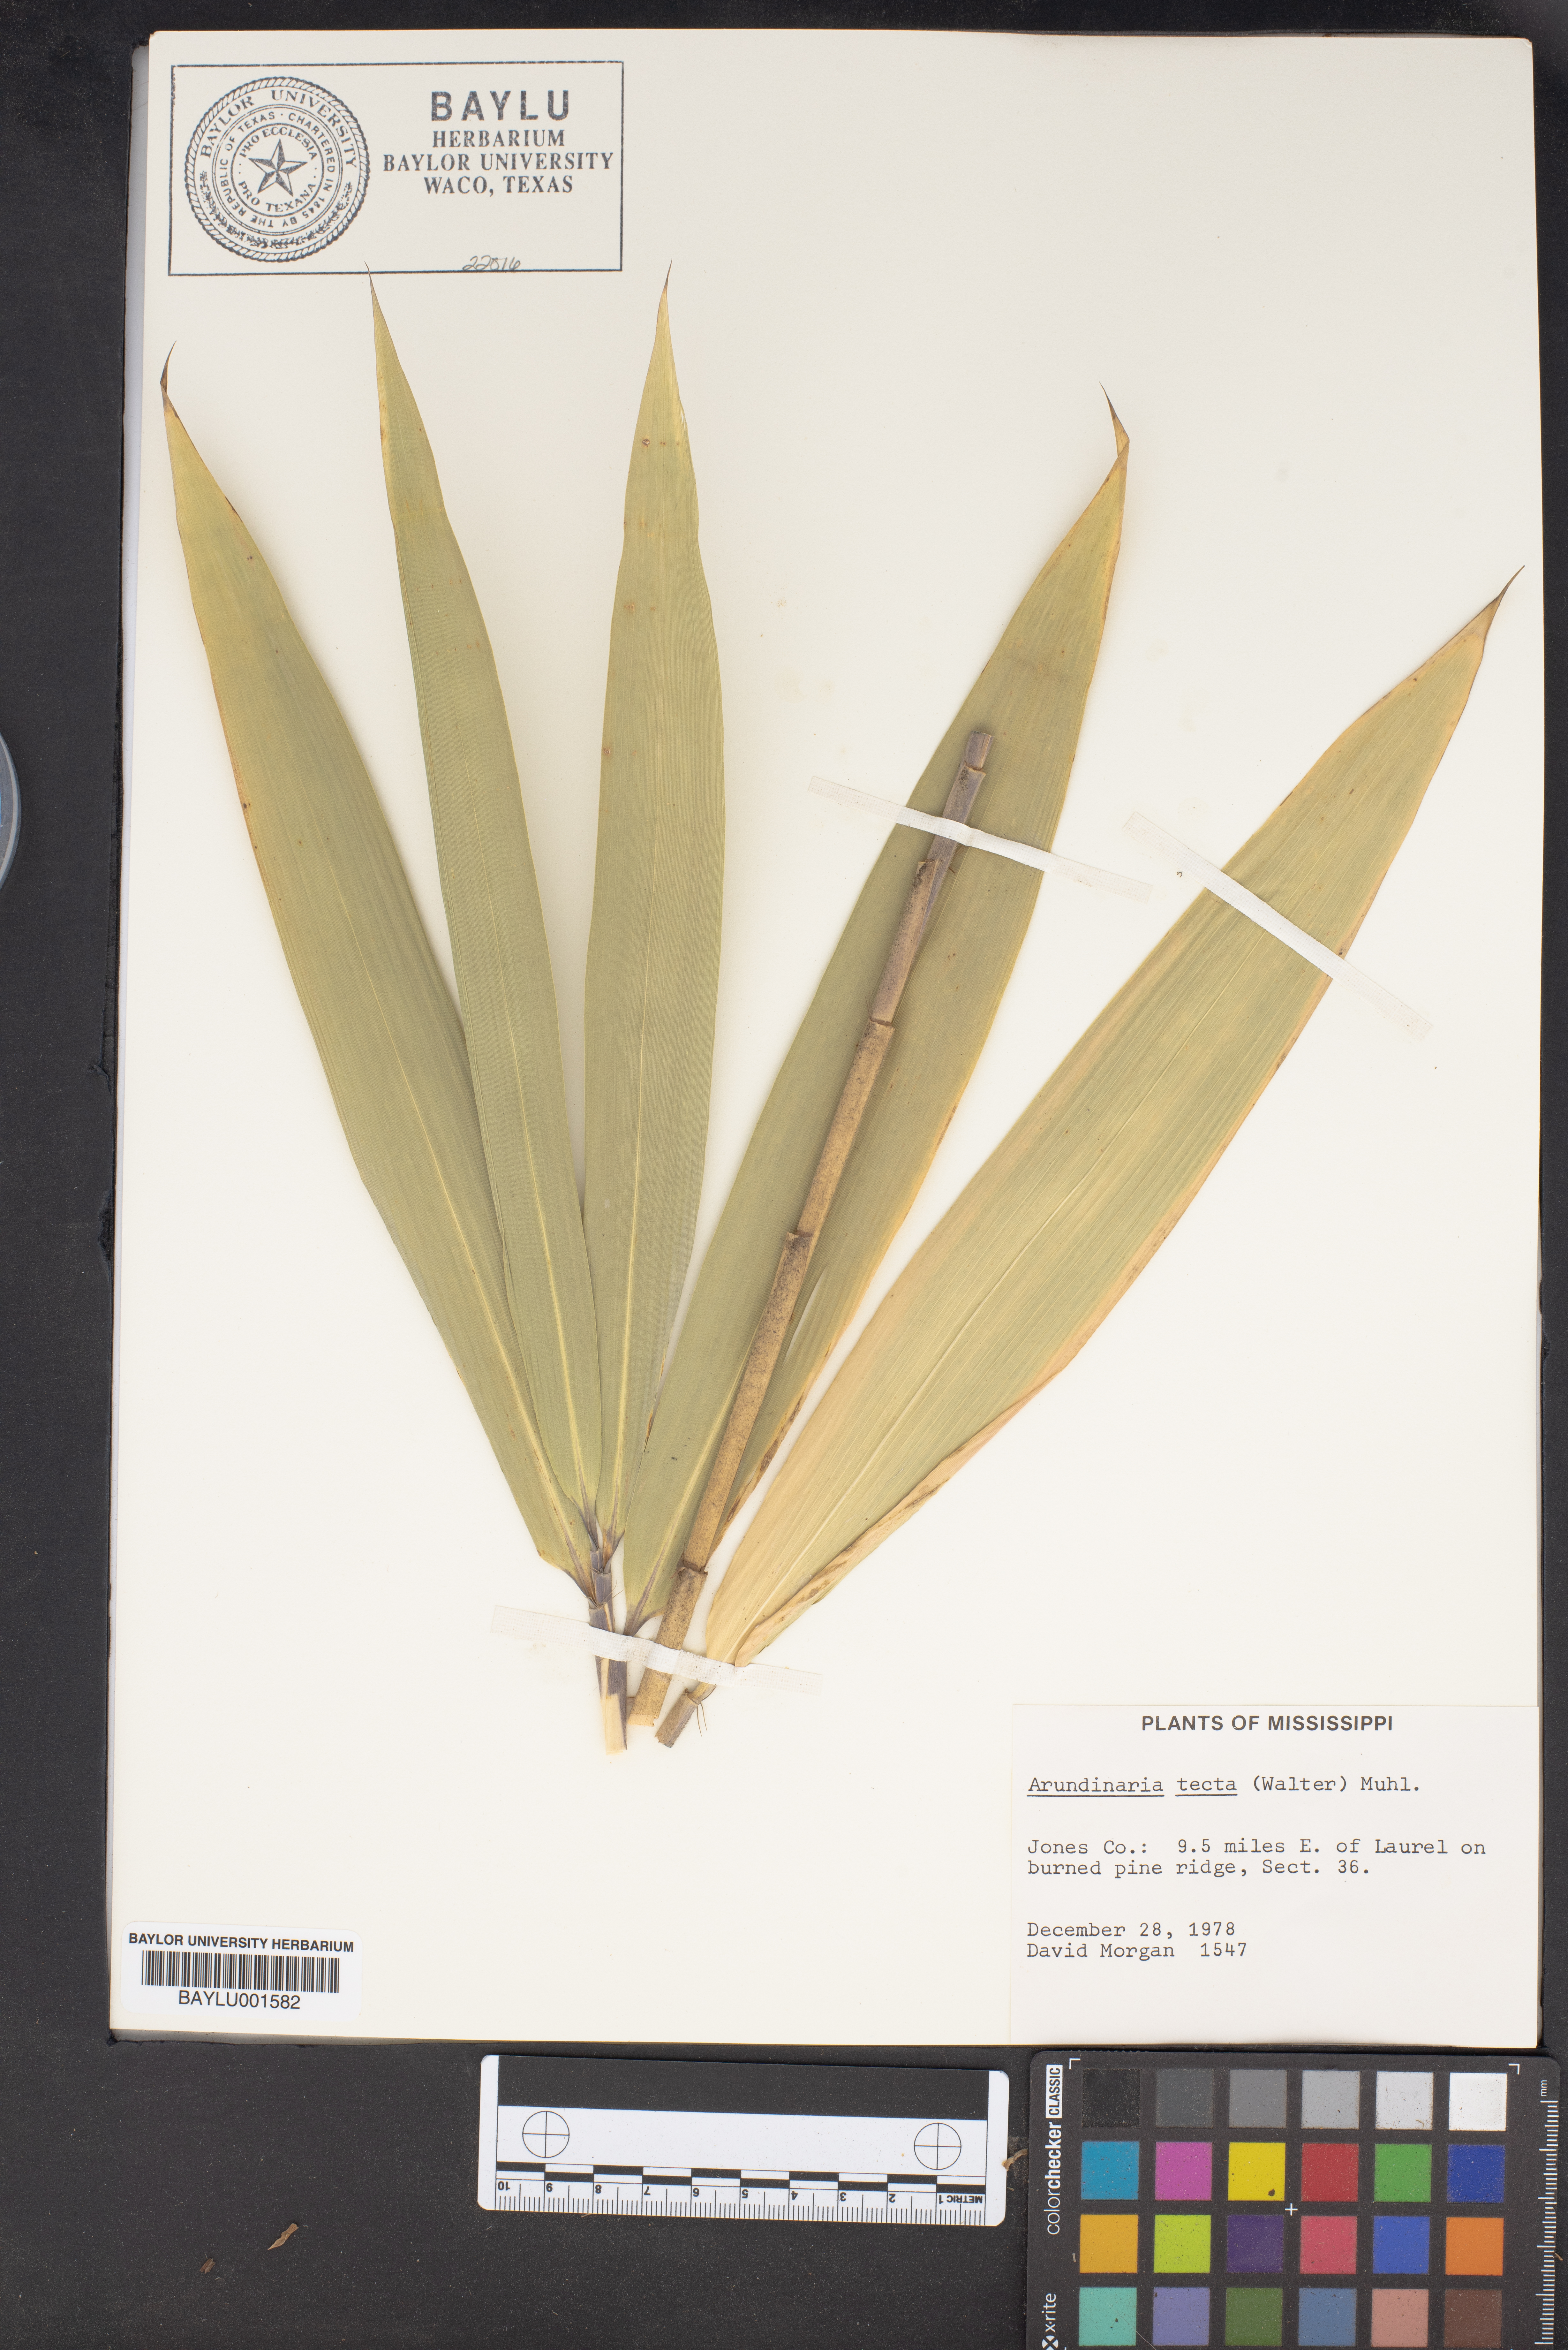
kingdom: Plantae
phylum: Tracheophyta
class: Liliopsida
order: Poales
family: Poaceae
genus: Arundinaria
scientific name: Arundinaria tecta
